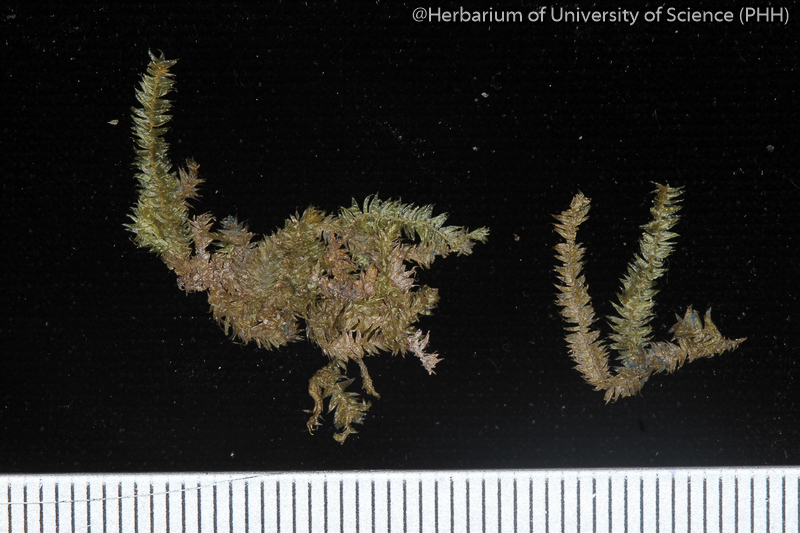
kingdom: Plantae
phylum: Bryophyta
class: Bryopsida
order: Hypnales
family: Taxiphyllaceae
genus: Taxiphyllum
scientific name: Taxiphyllum taxirameum
